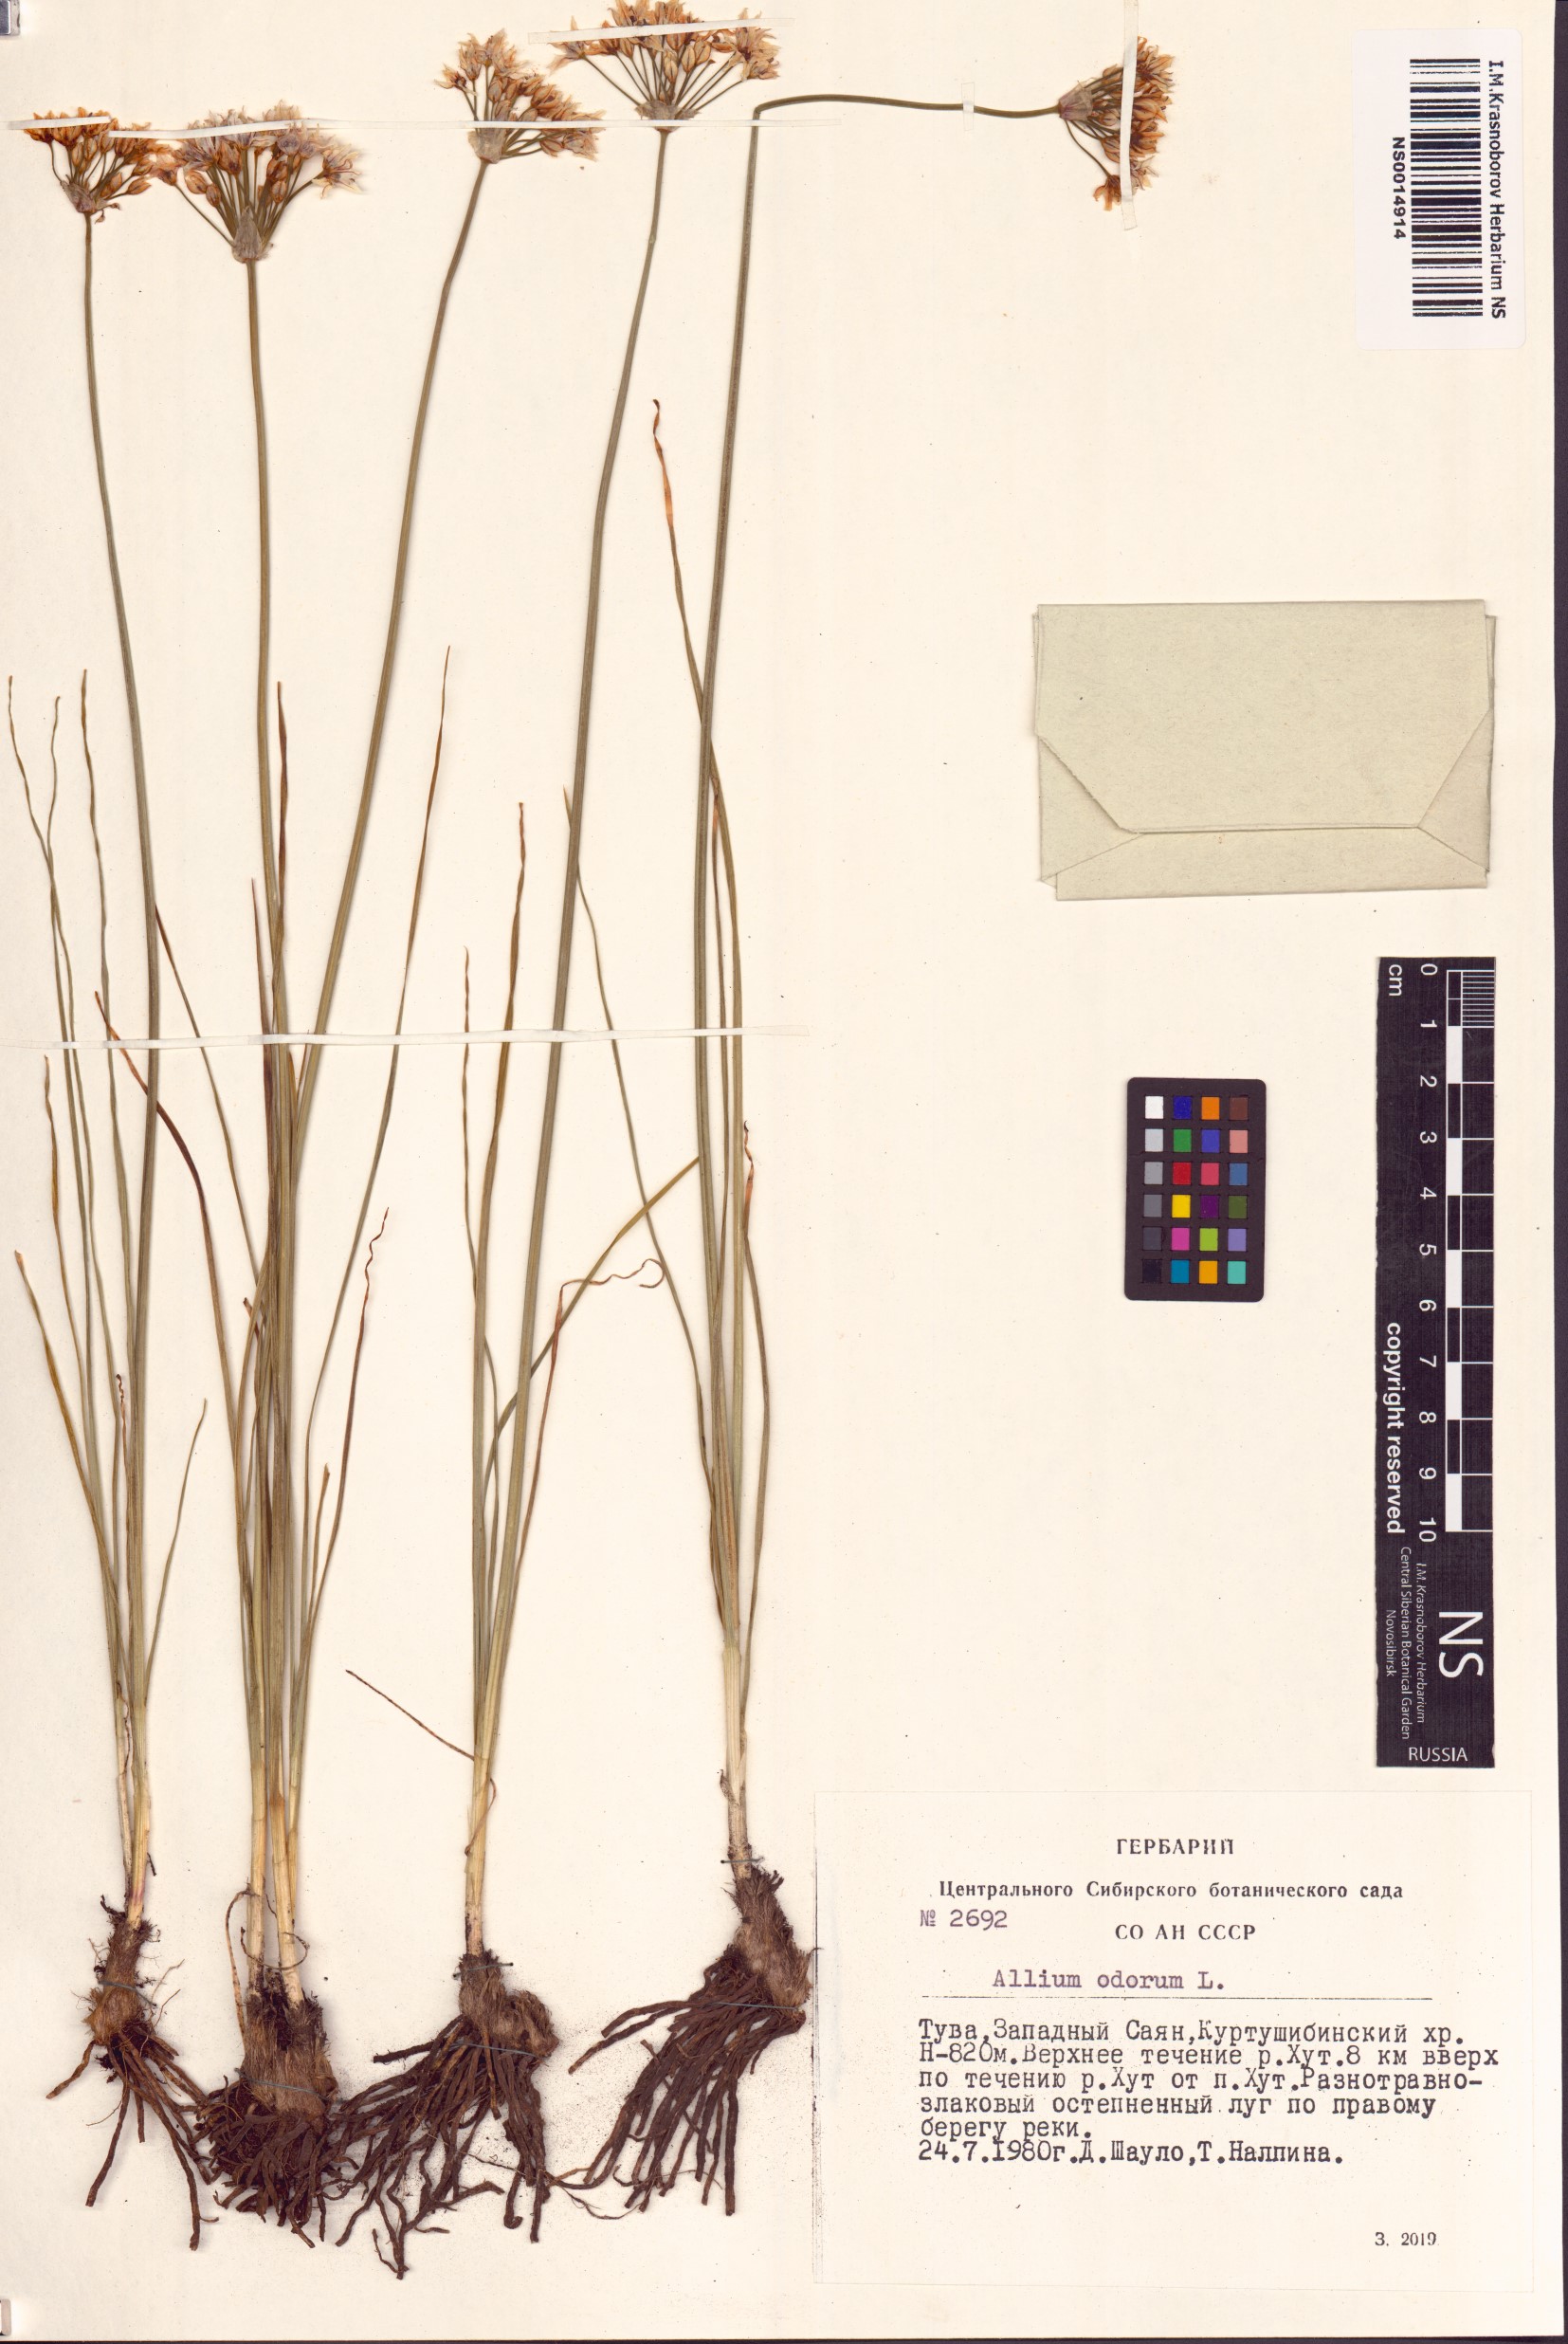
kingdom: Plantae
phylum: Tracheophyta
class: Liliopsida
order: Asparagales
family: Amaryllidaceae
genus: Allium
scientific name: Allium ramosum
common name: Fragrant garlic
